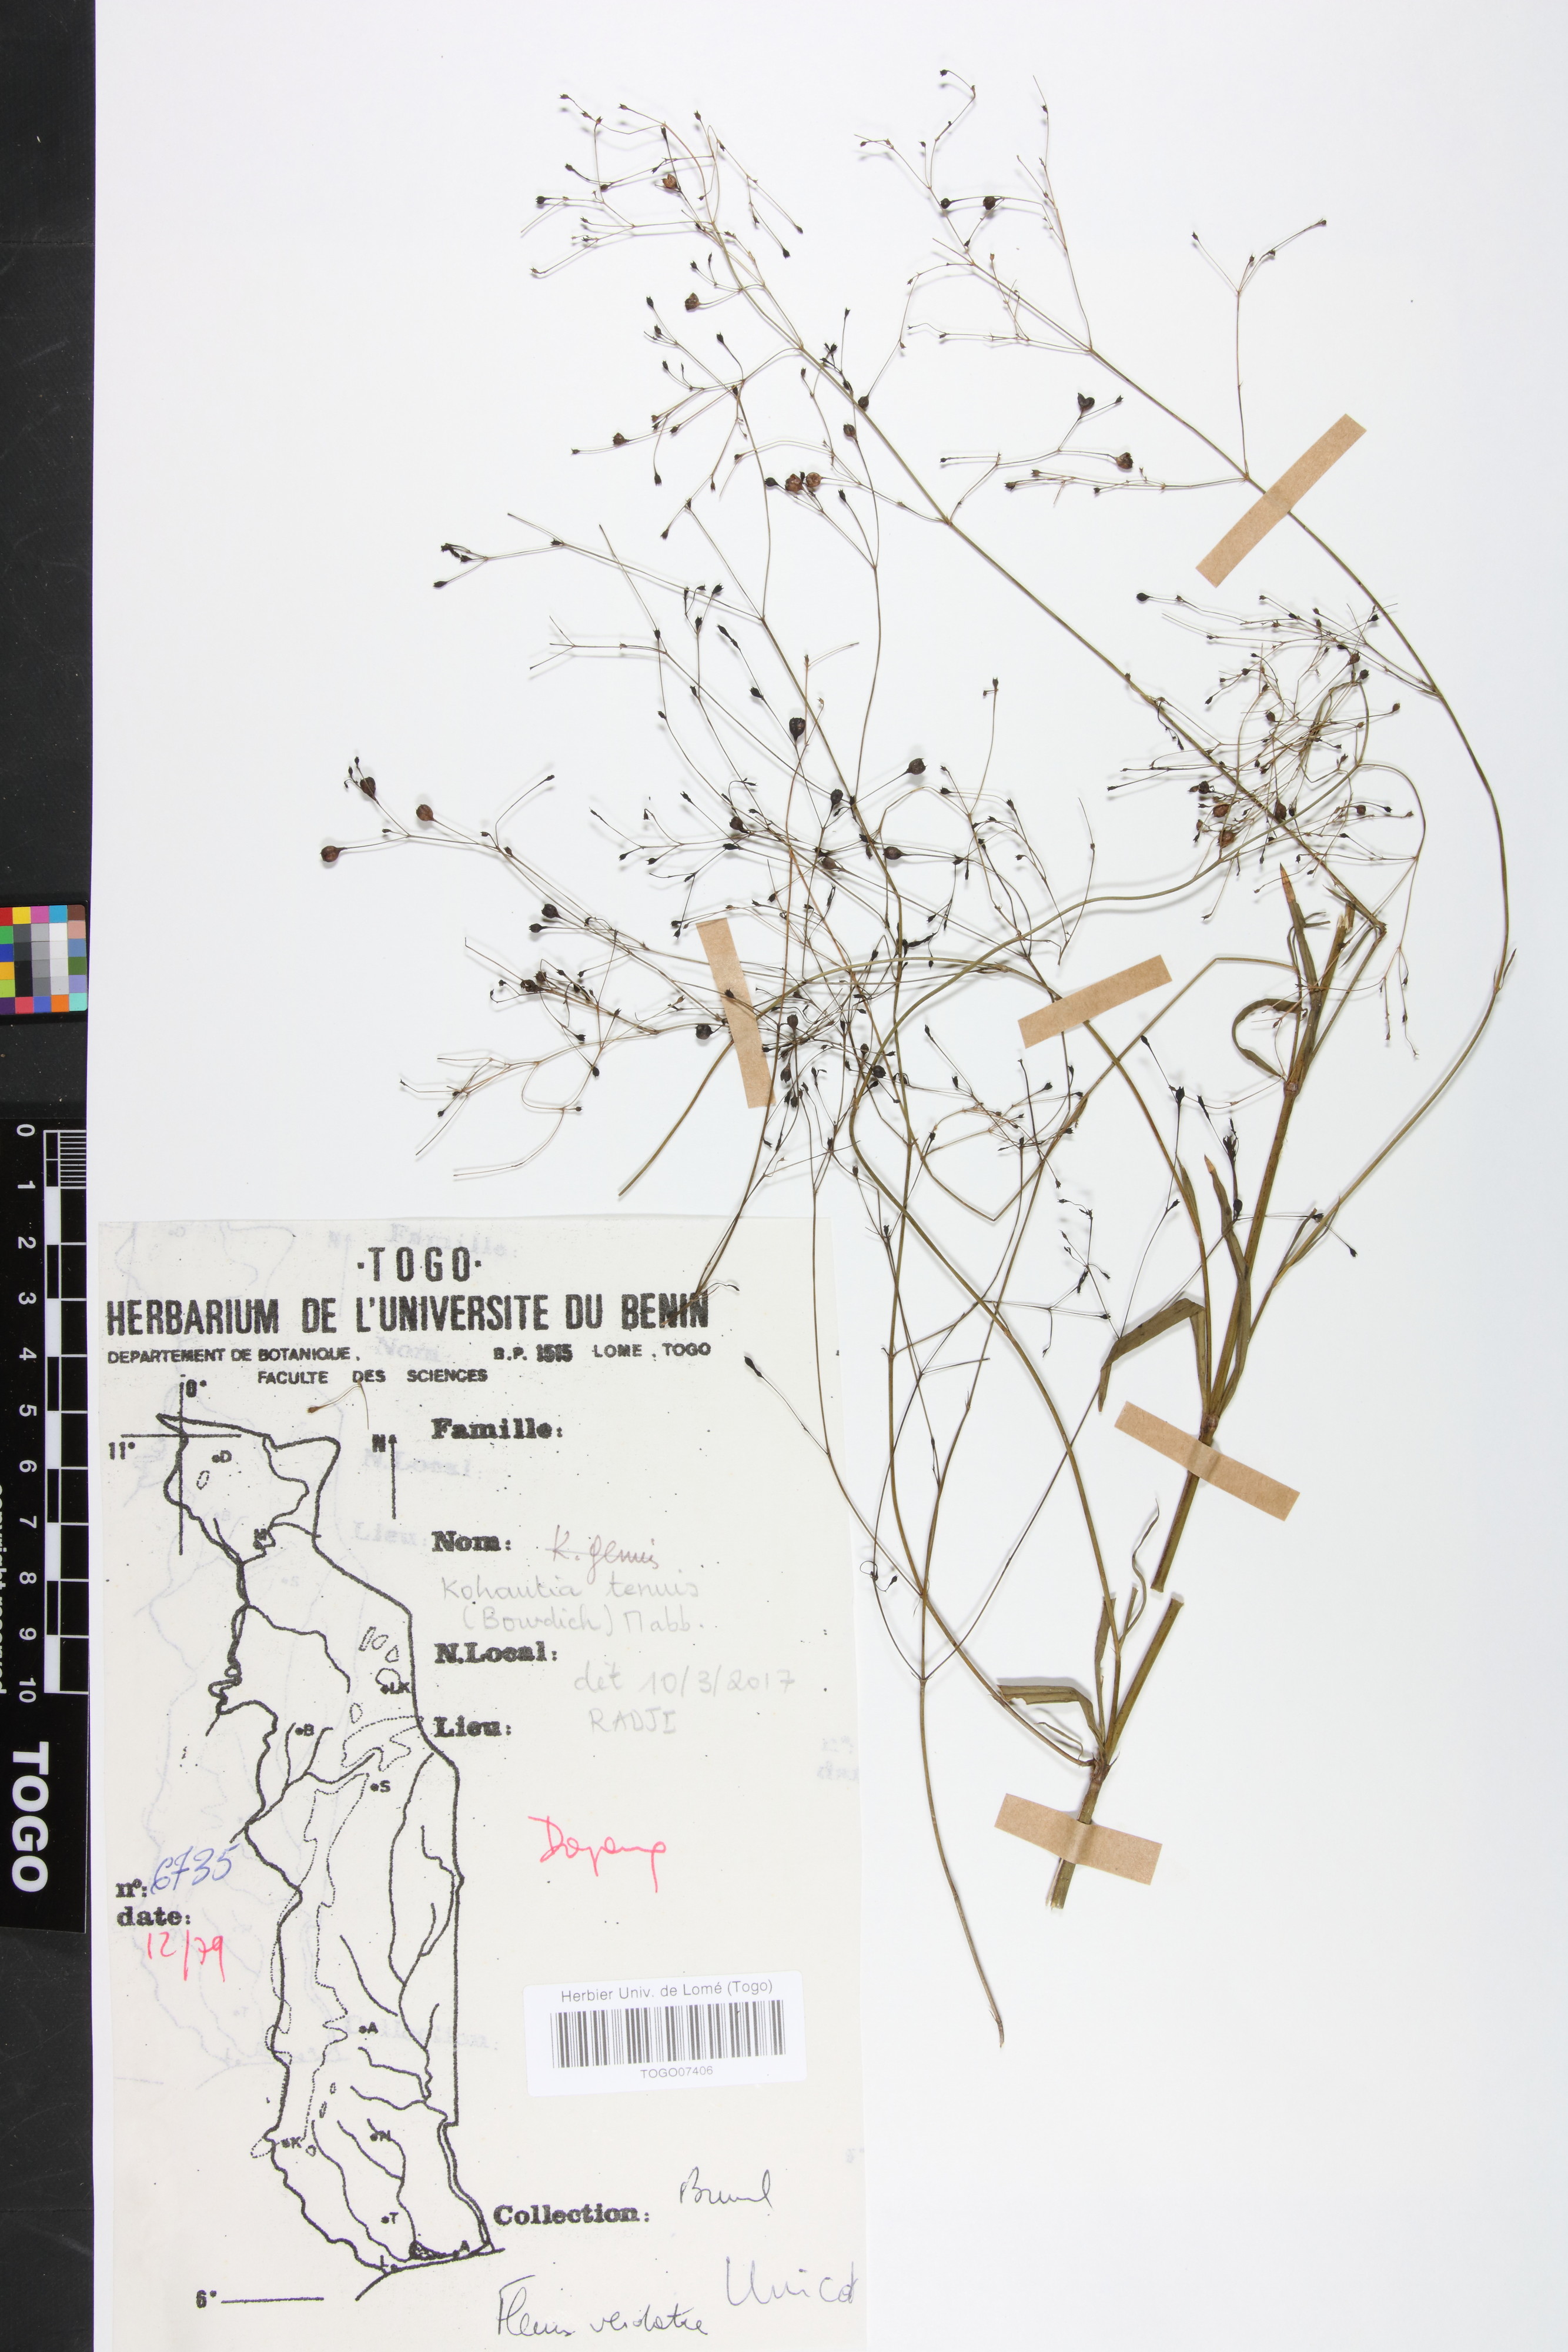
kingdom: Plantae
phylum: Tracheophyta
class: Magnoliopsida
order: Gentianales
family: Rubiaceae
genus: Kohautia
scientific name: Kohautia
